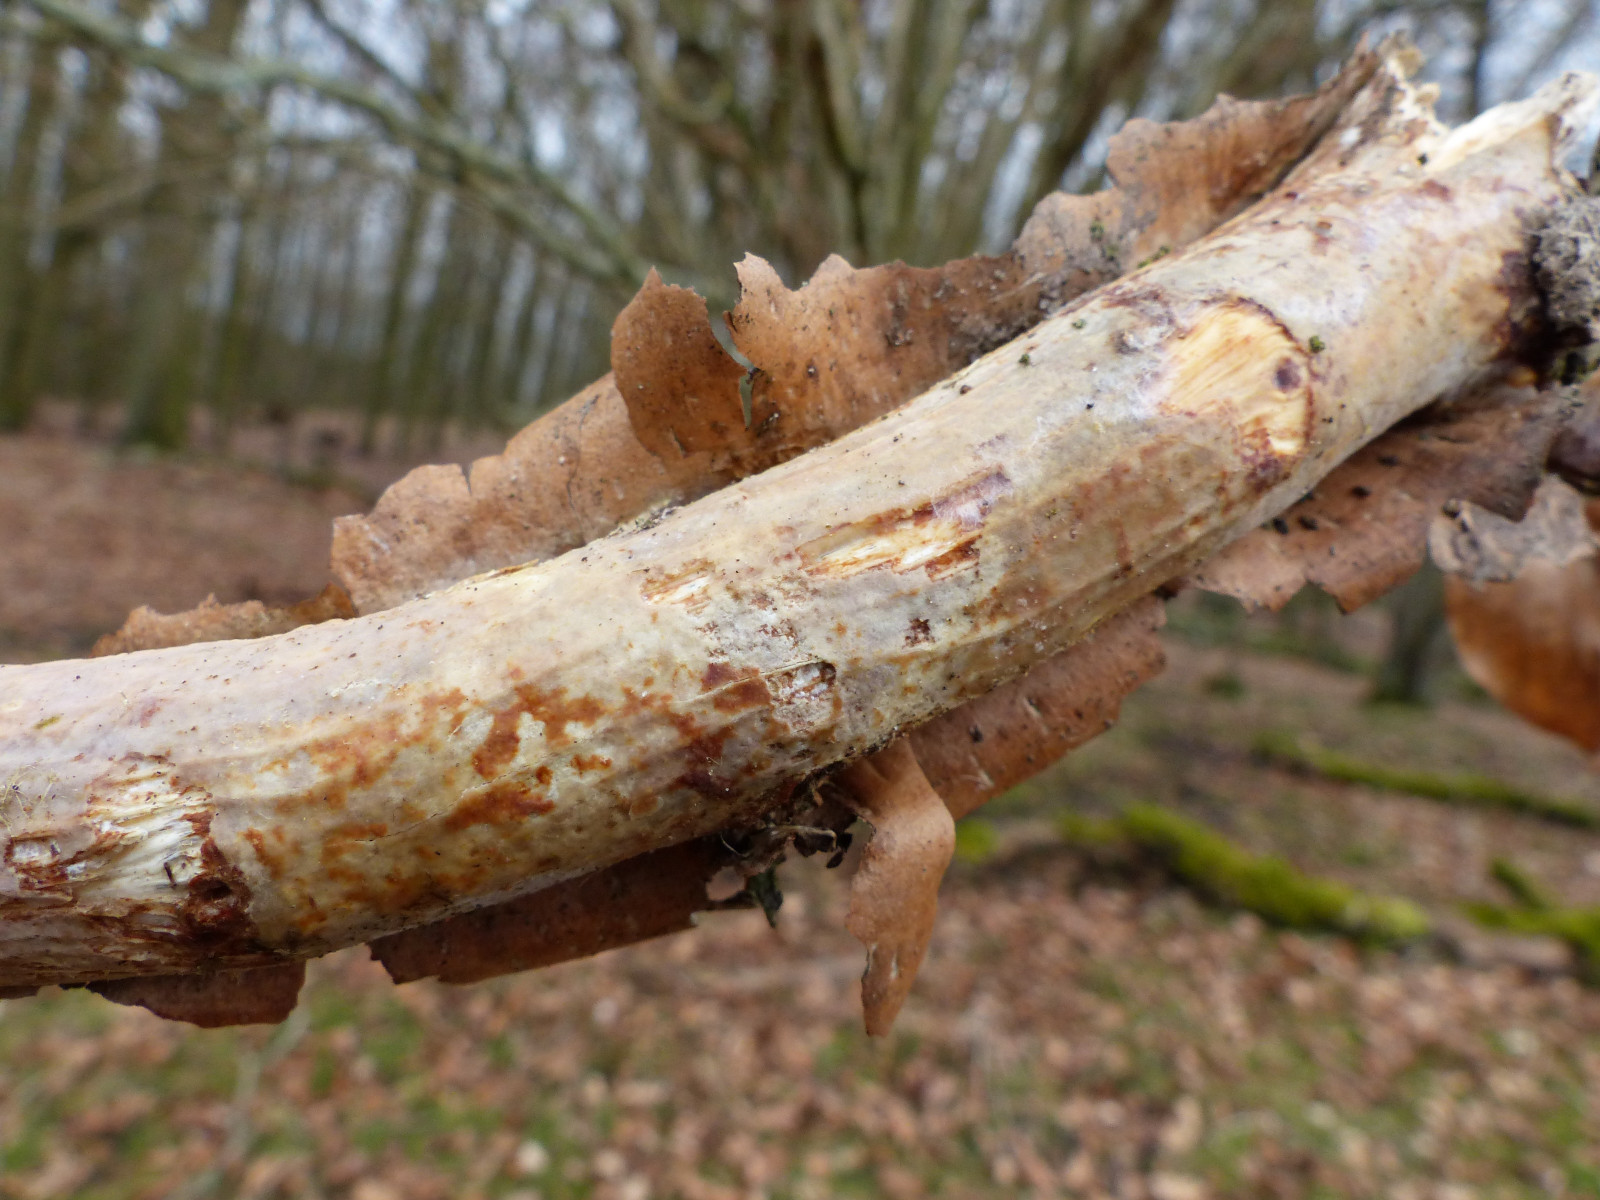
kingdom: Fungi
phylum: Basidiomycota
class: Agaricomycetes
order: Corticiales
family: Vuilleminiaceae
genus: Vuilleminia
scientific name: Vuilleminia coryli
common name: hassel-barksprænger
